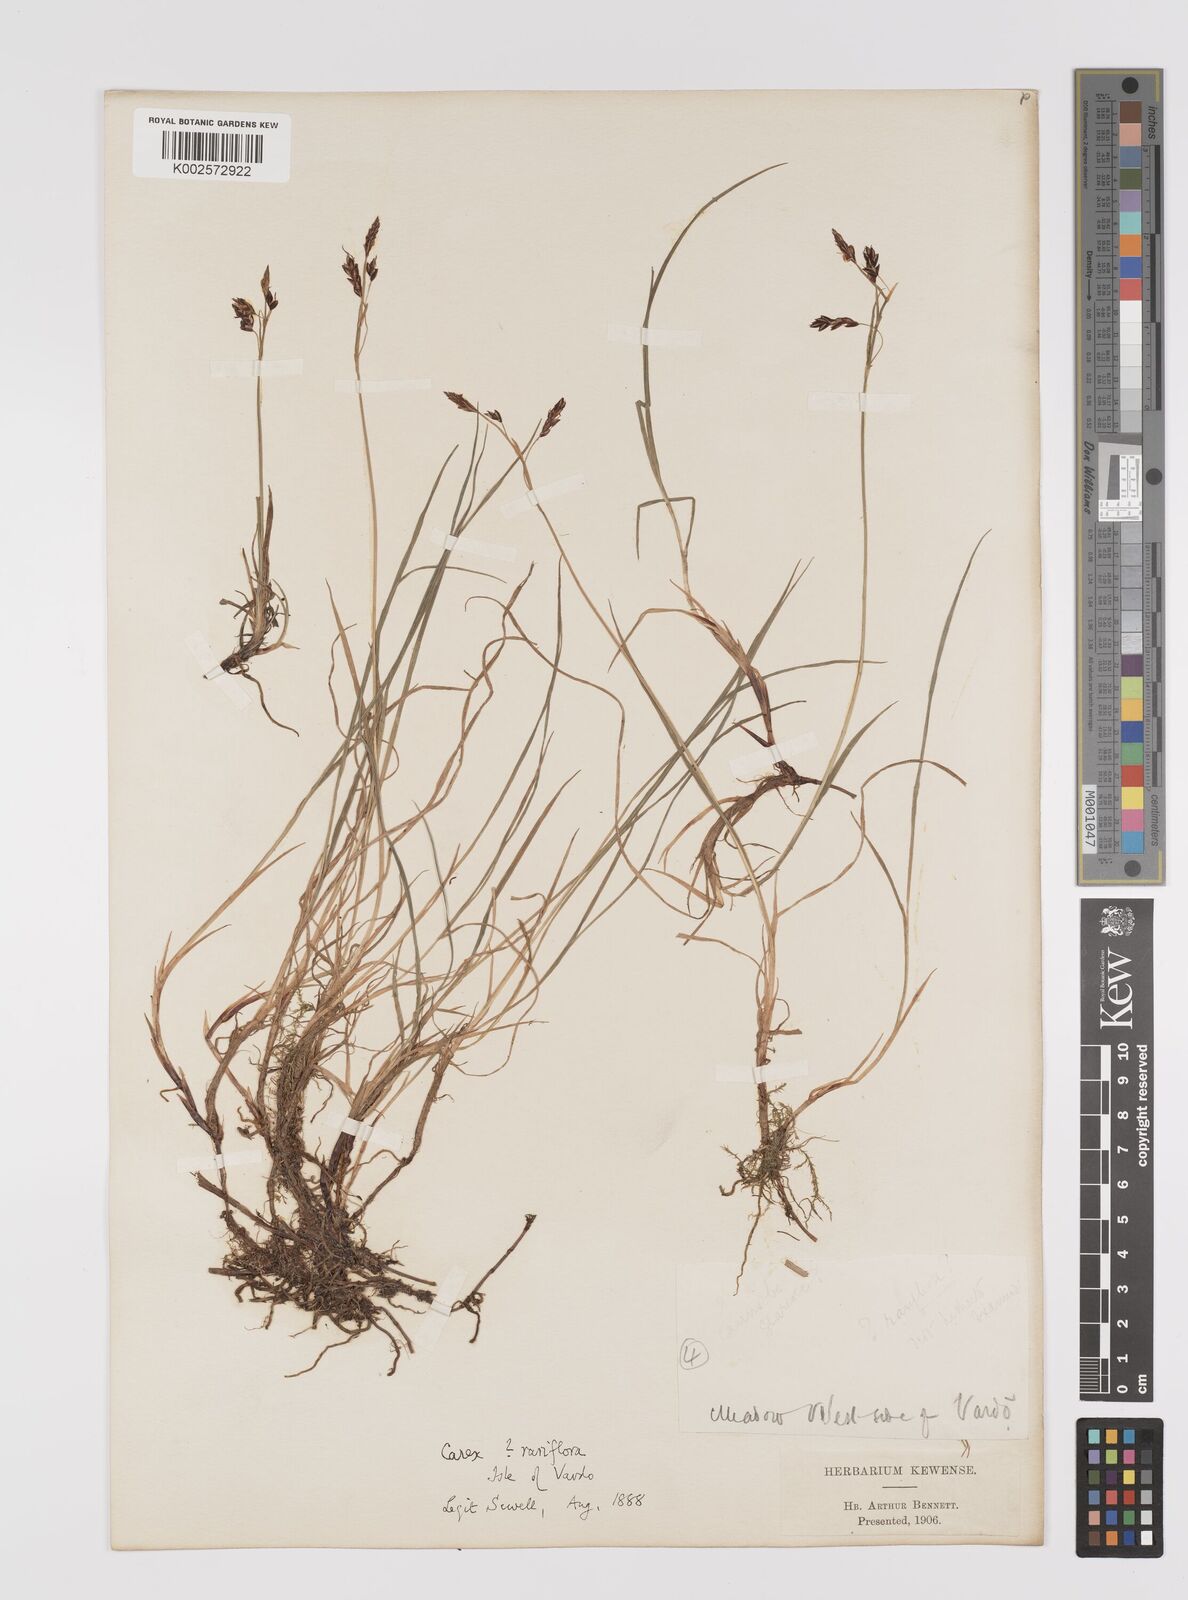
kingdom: Plantae
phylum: Tracheophyta
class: Liliopsida
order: Poales
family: Cyperaceae
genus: Carex
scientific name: Carex rariflora
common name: Loose-flowered alpine sedge
